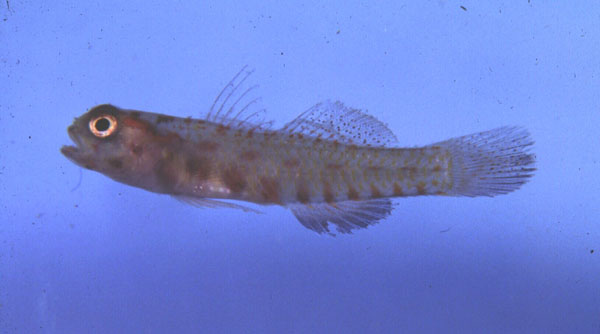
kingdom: Animalia
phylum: Chordata
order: Perciformes
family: Gobiidae
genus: Eviota
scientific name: Eviota albolineata
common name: Spotted fringefin goby
